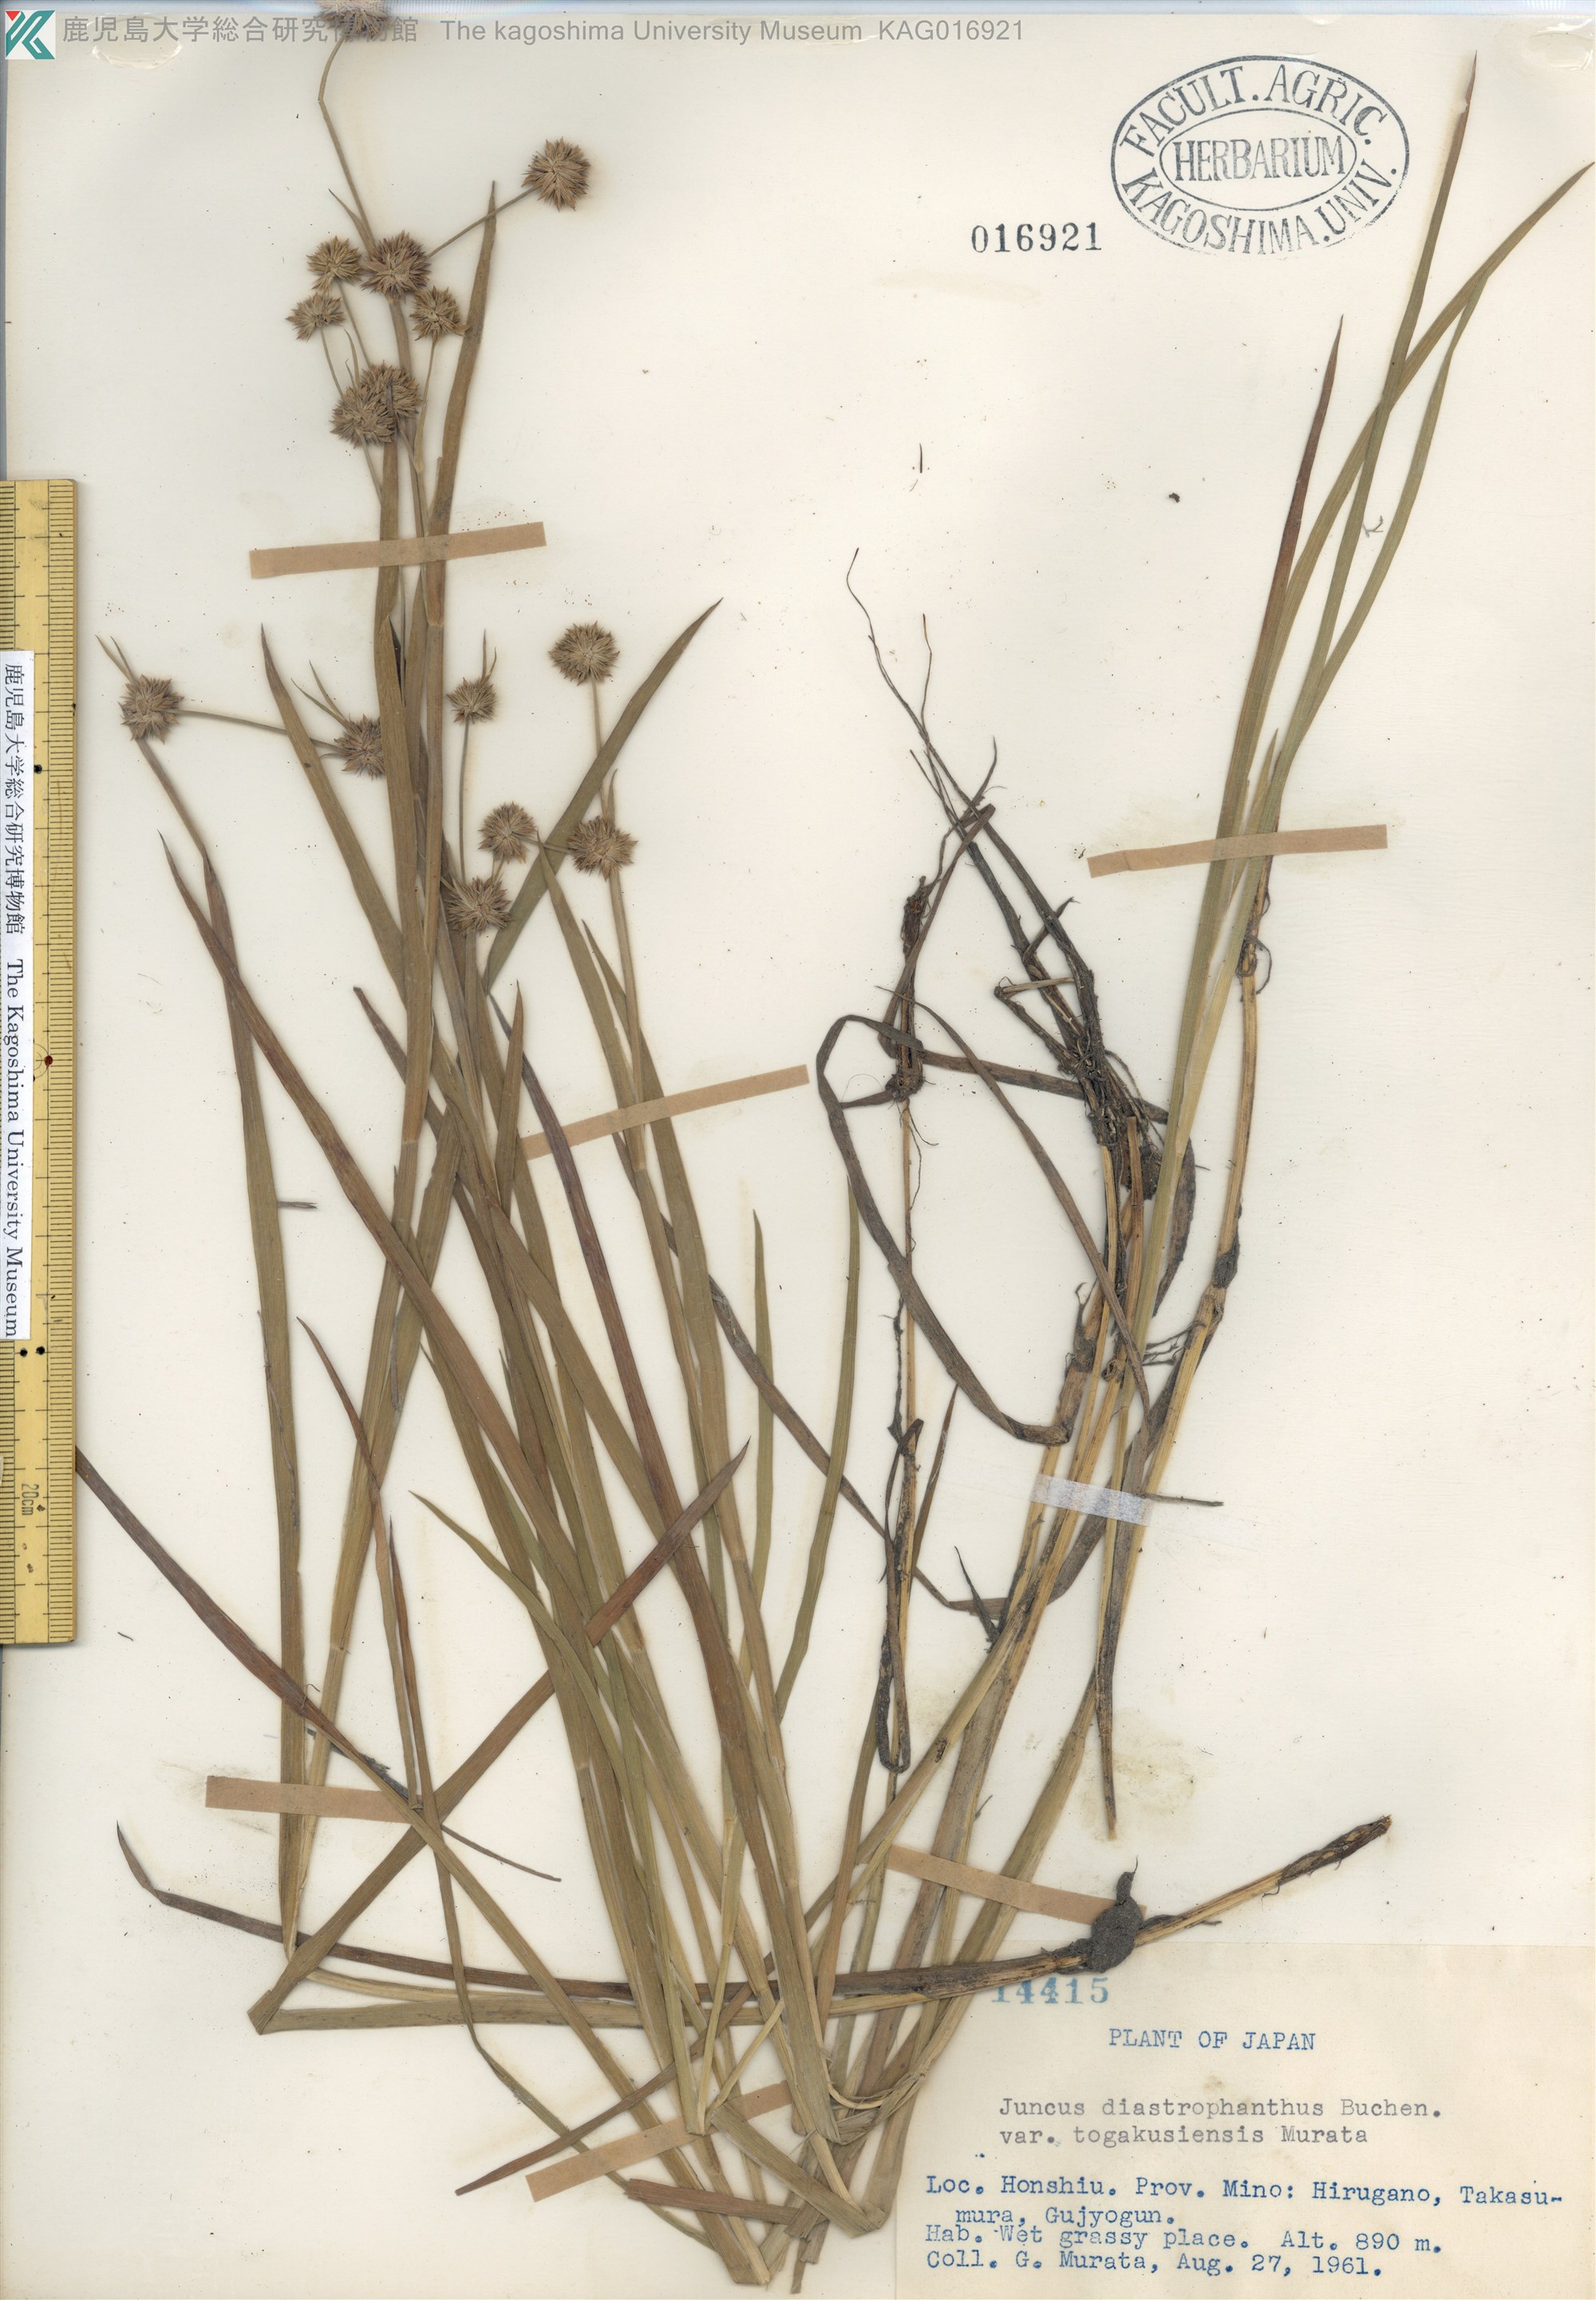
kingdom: Plantae
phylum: Tracheophyta
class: Liliopsida
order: Poales
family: Juncaceae
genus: Juncus
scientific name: Juncus diastrophanthus
